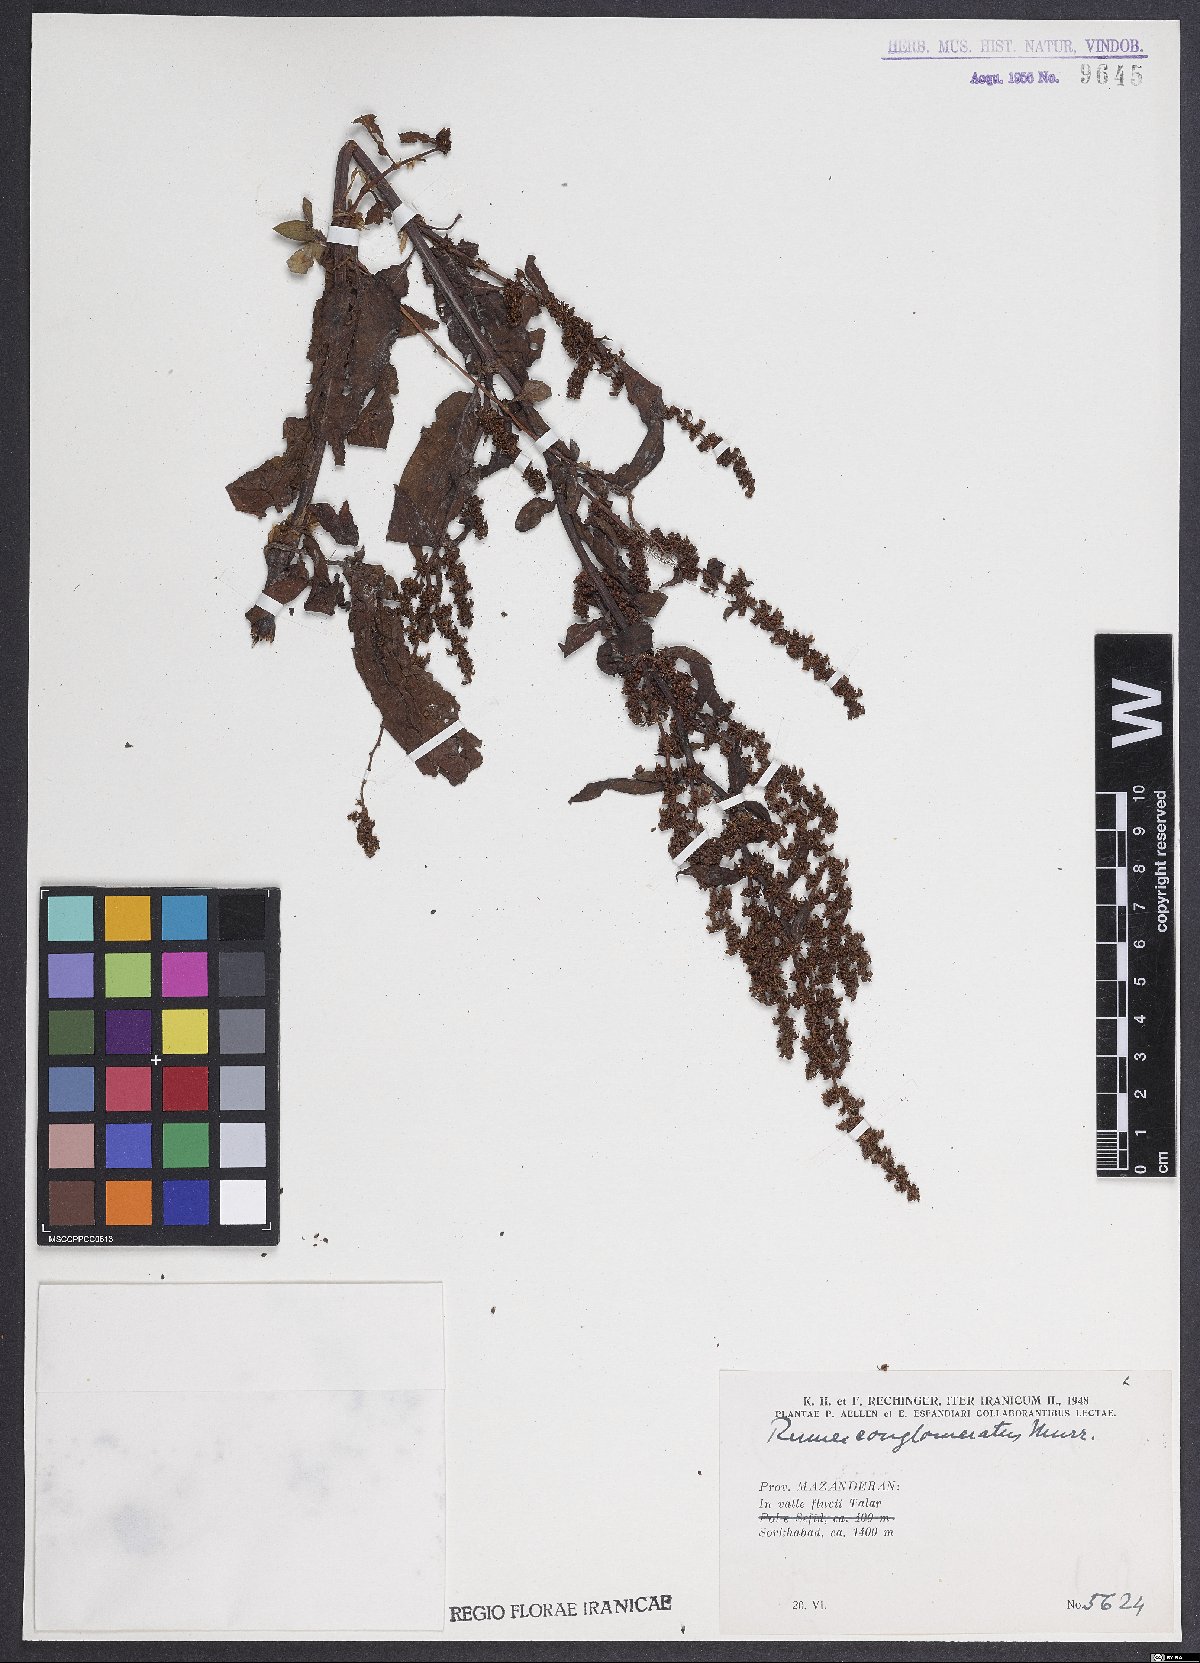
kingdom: Plantae
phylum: Tracheophyta
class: Magnoliopsida
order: Caryophyllales
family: Polygonaceae
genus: Rumex
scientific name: Rumex conglomeratus
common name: Clustered dock
